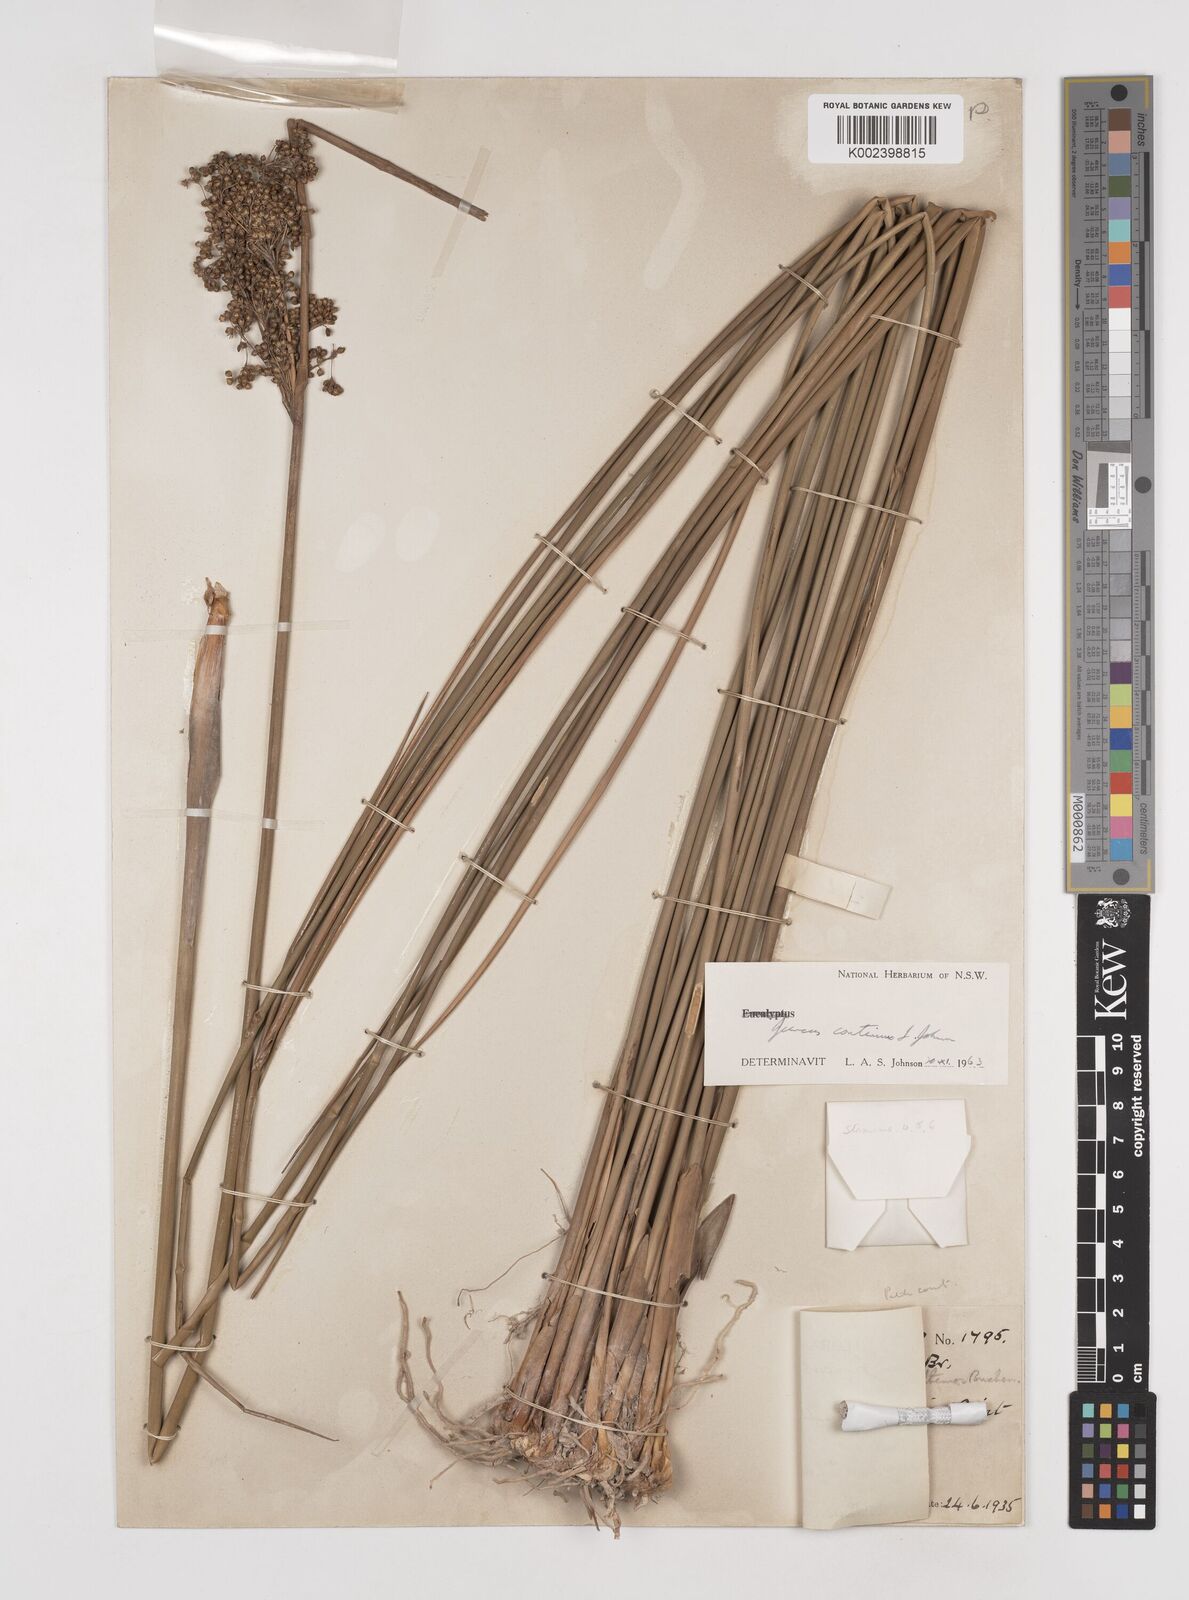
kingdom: Plantae
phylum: Tracheophyta
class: Liliopsida
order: Poales
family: Juncaceae
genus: Juncus
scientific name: Juncus continuus
